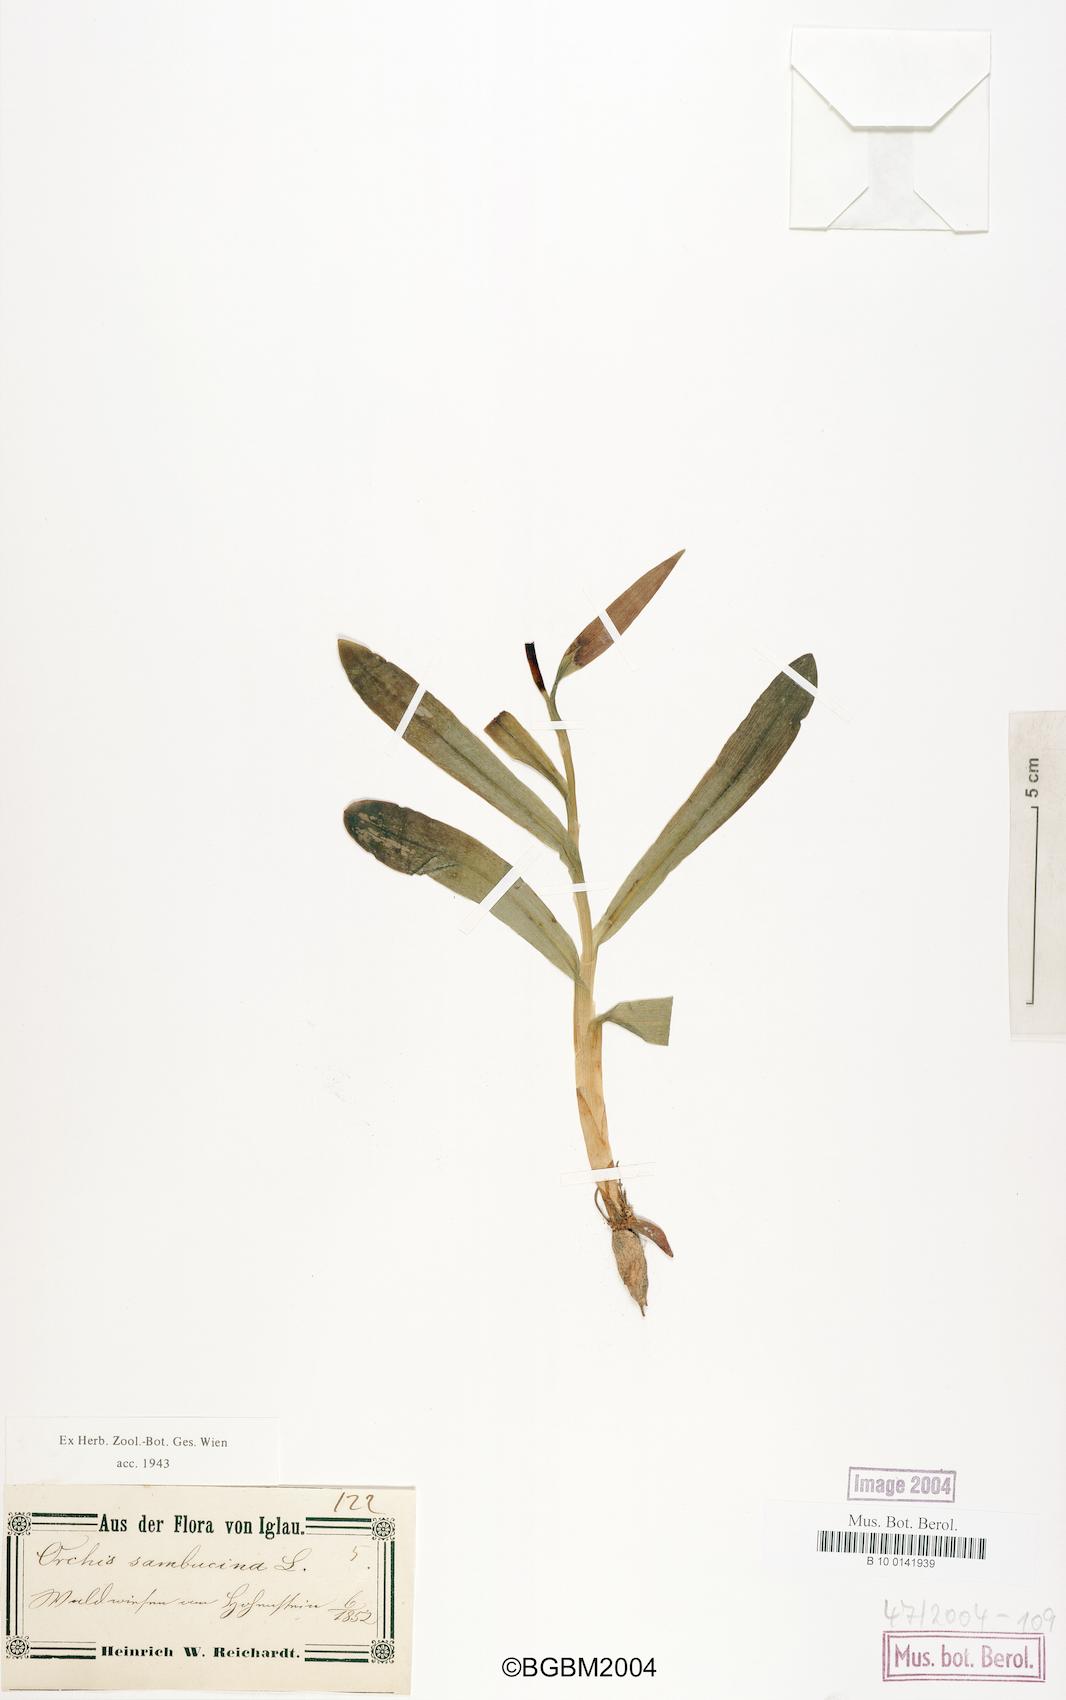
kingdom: Plantae
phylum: Tracheophyta
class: Liliopsida
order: Asparagales
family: Orchidaceae
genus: Dactylorhiza
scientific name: Dactylorhiza sambucina
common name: Elder-flowered orchid
